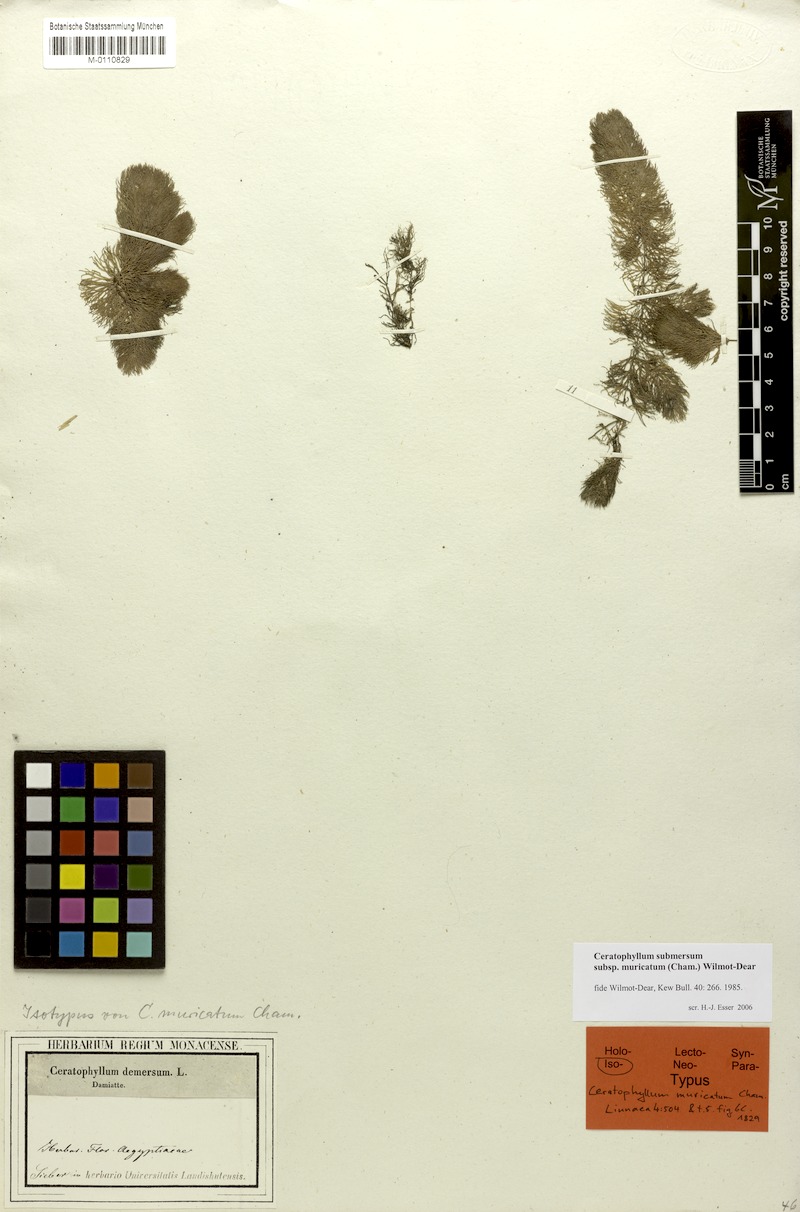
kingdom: Plantae
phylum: Tracheophyta
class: Magnoliopsida
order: Ceratophyllales
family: Ceratophyllaceae
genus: Ceratophyllum
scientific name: Ceratophyllum demersum
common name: Rigid hornwort
